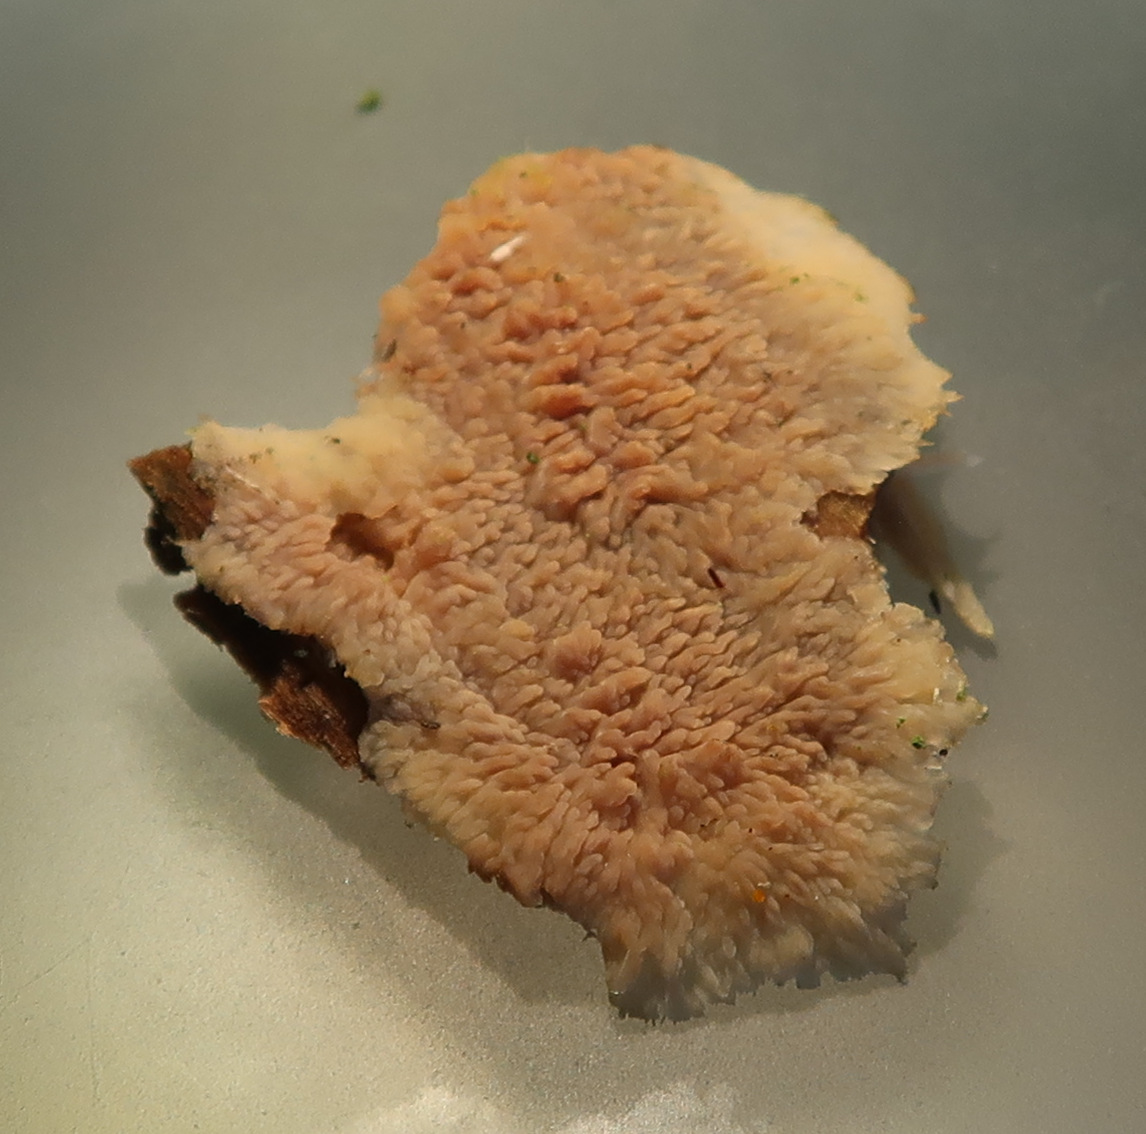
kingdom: Fungi
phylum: Basidiomycota
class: Agaricomycetes
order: Polyporales
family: Meruliaceae
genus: Phlebia
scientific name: Phlebia radiata
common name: stråle-åresvamp
